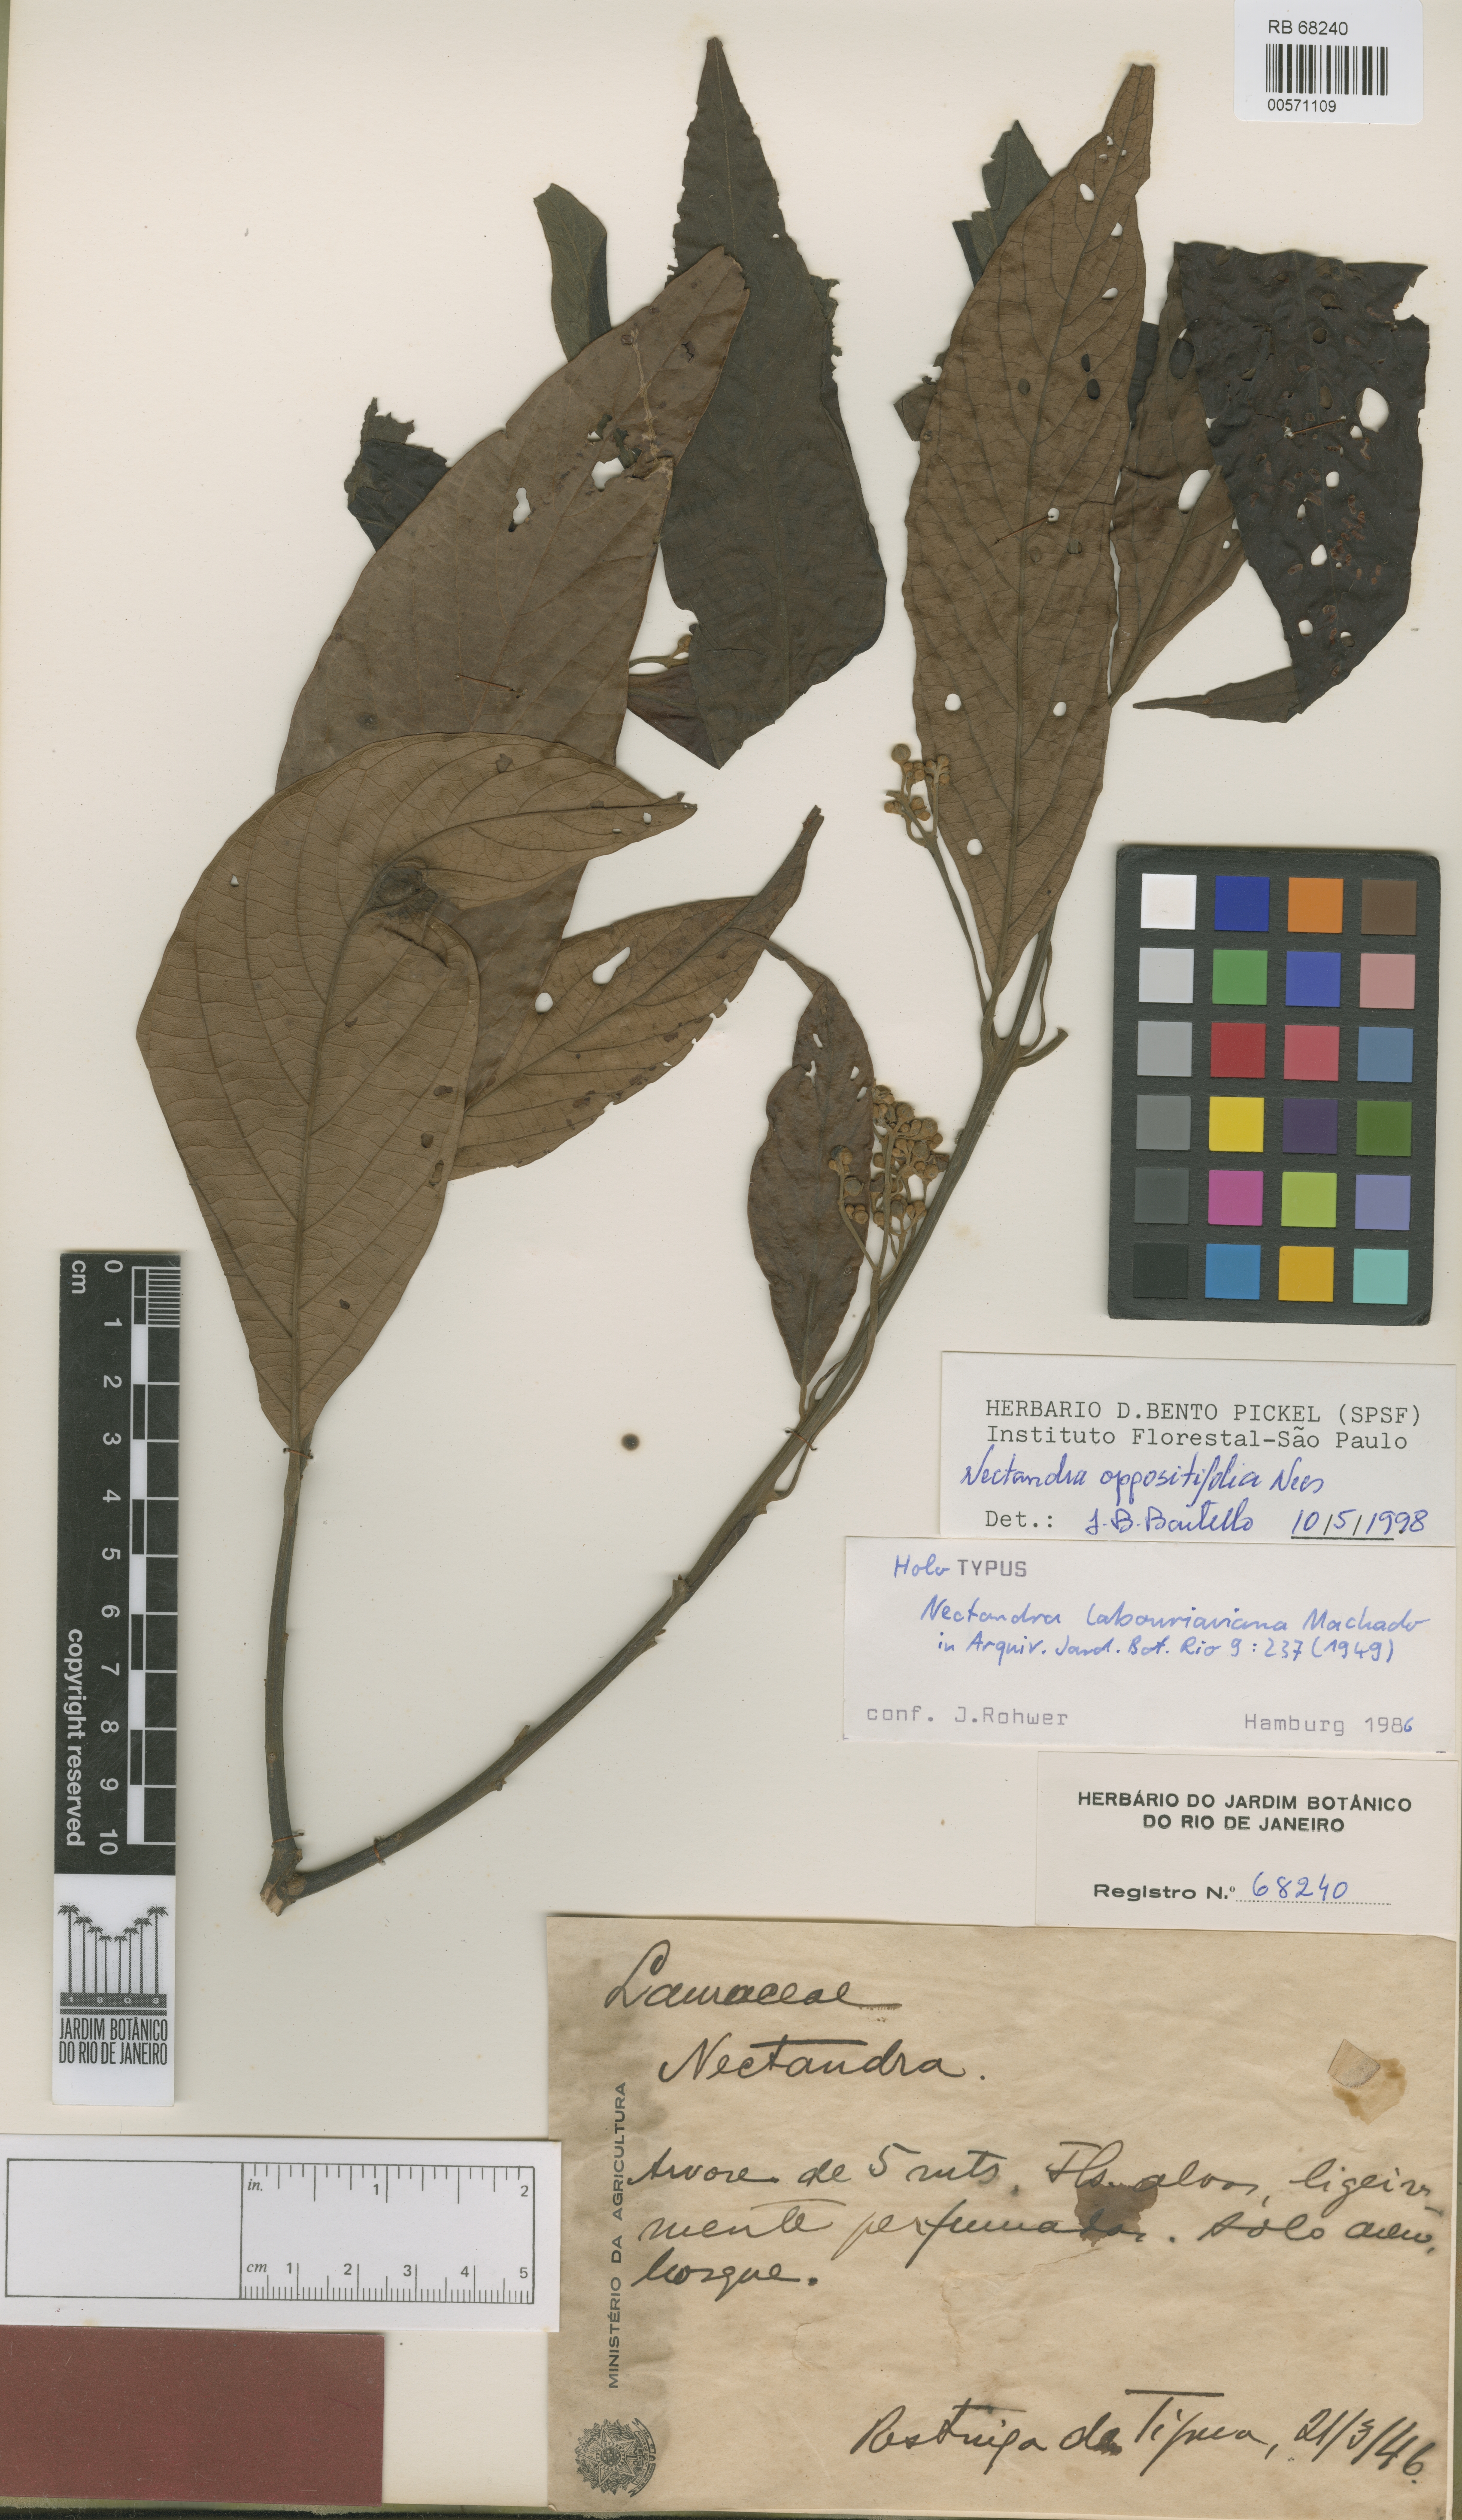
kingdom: Plantae
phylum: Tracheophyta
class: Magnoliopsida
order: Laurales
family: Lauraceae
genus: Nectandra
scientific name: Nectandra oppositifolia
